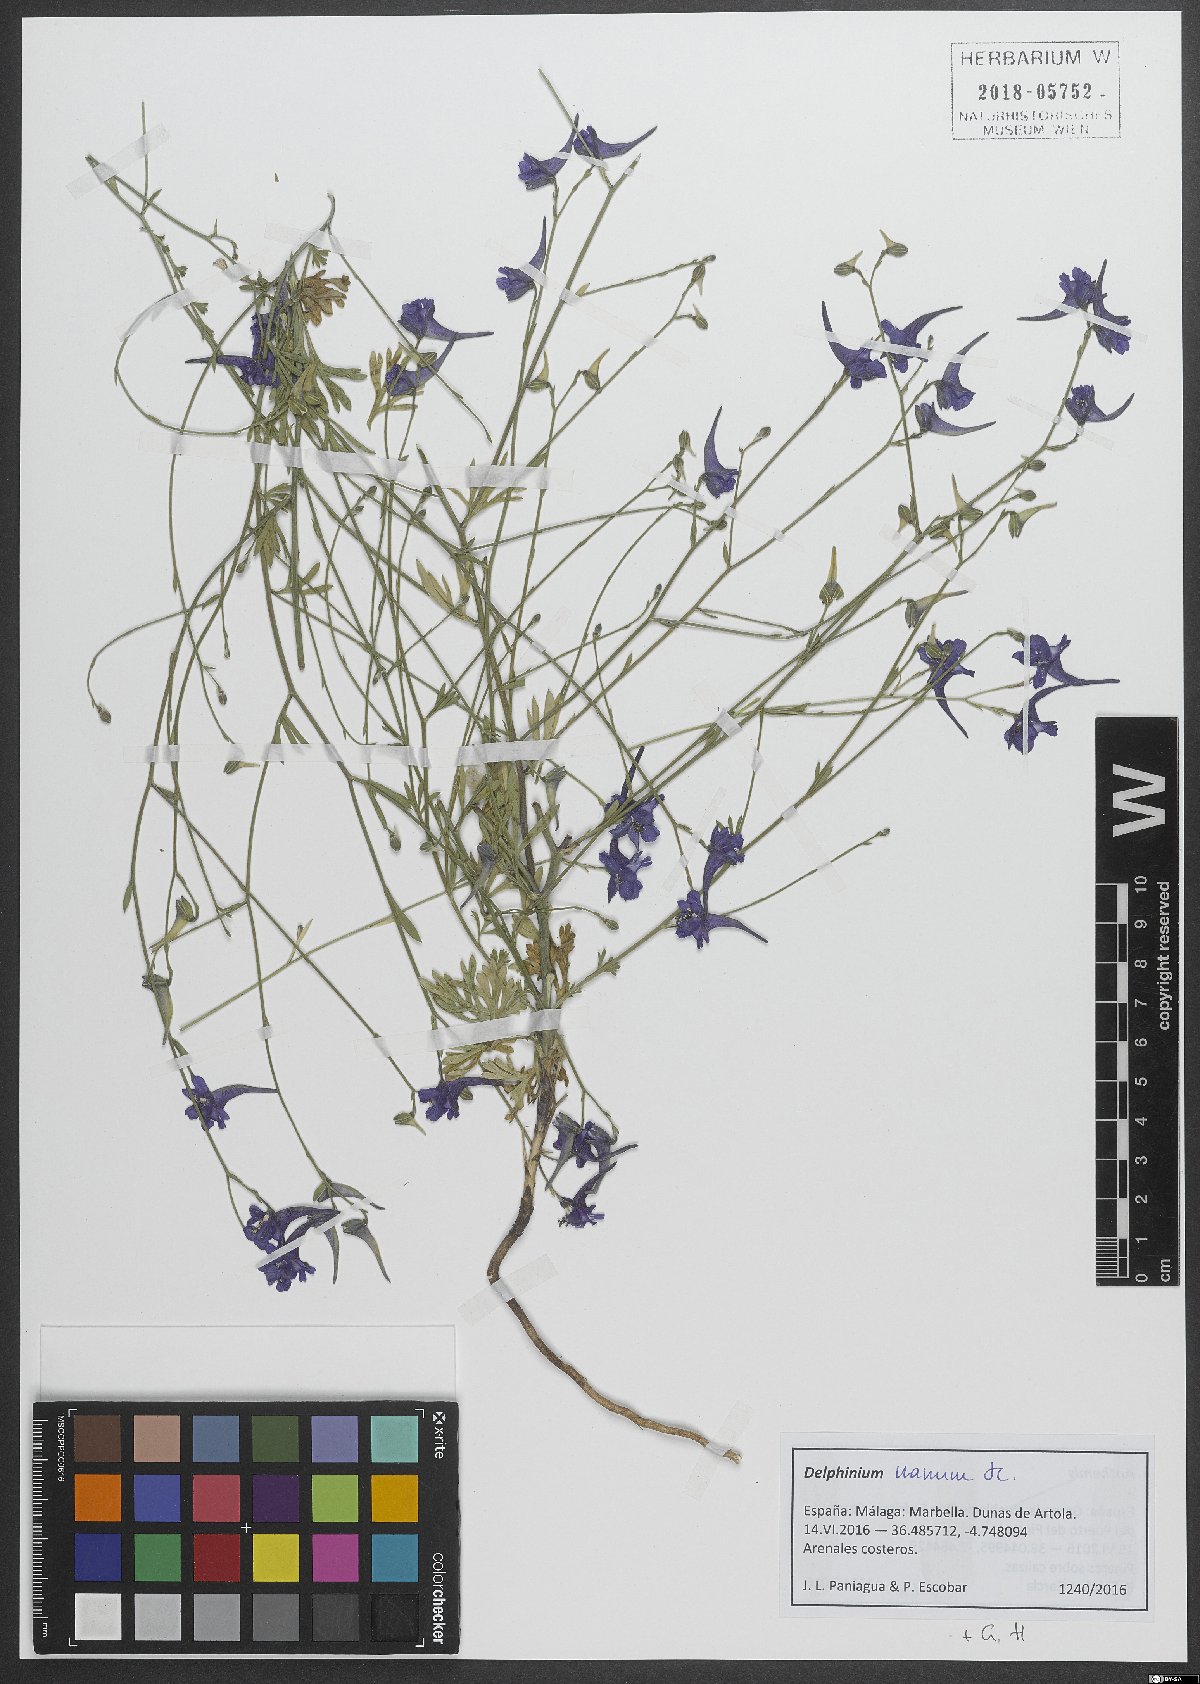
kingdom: Plantae
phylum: Tracheophyta
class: Magnoliopsida
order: Ranunculales
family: Ranunculaceae
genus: Delphinium
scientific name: Delphinium ajacis
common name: Doubtful knight's-spur
